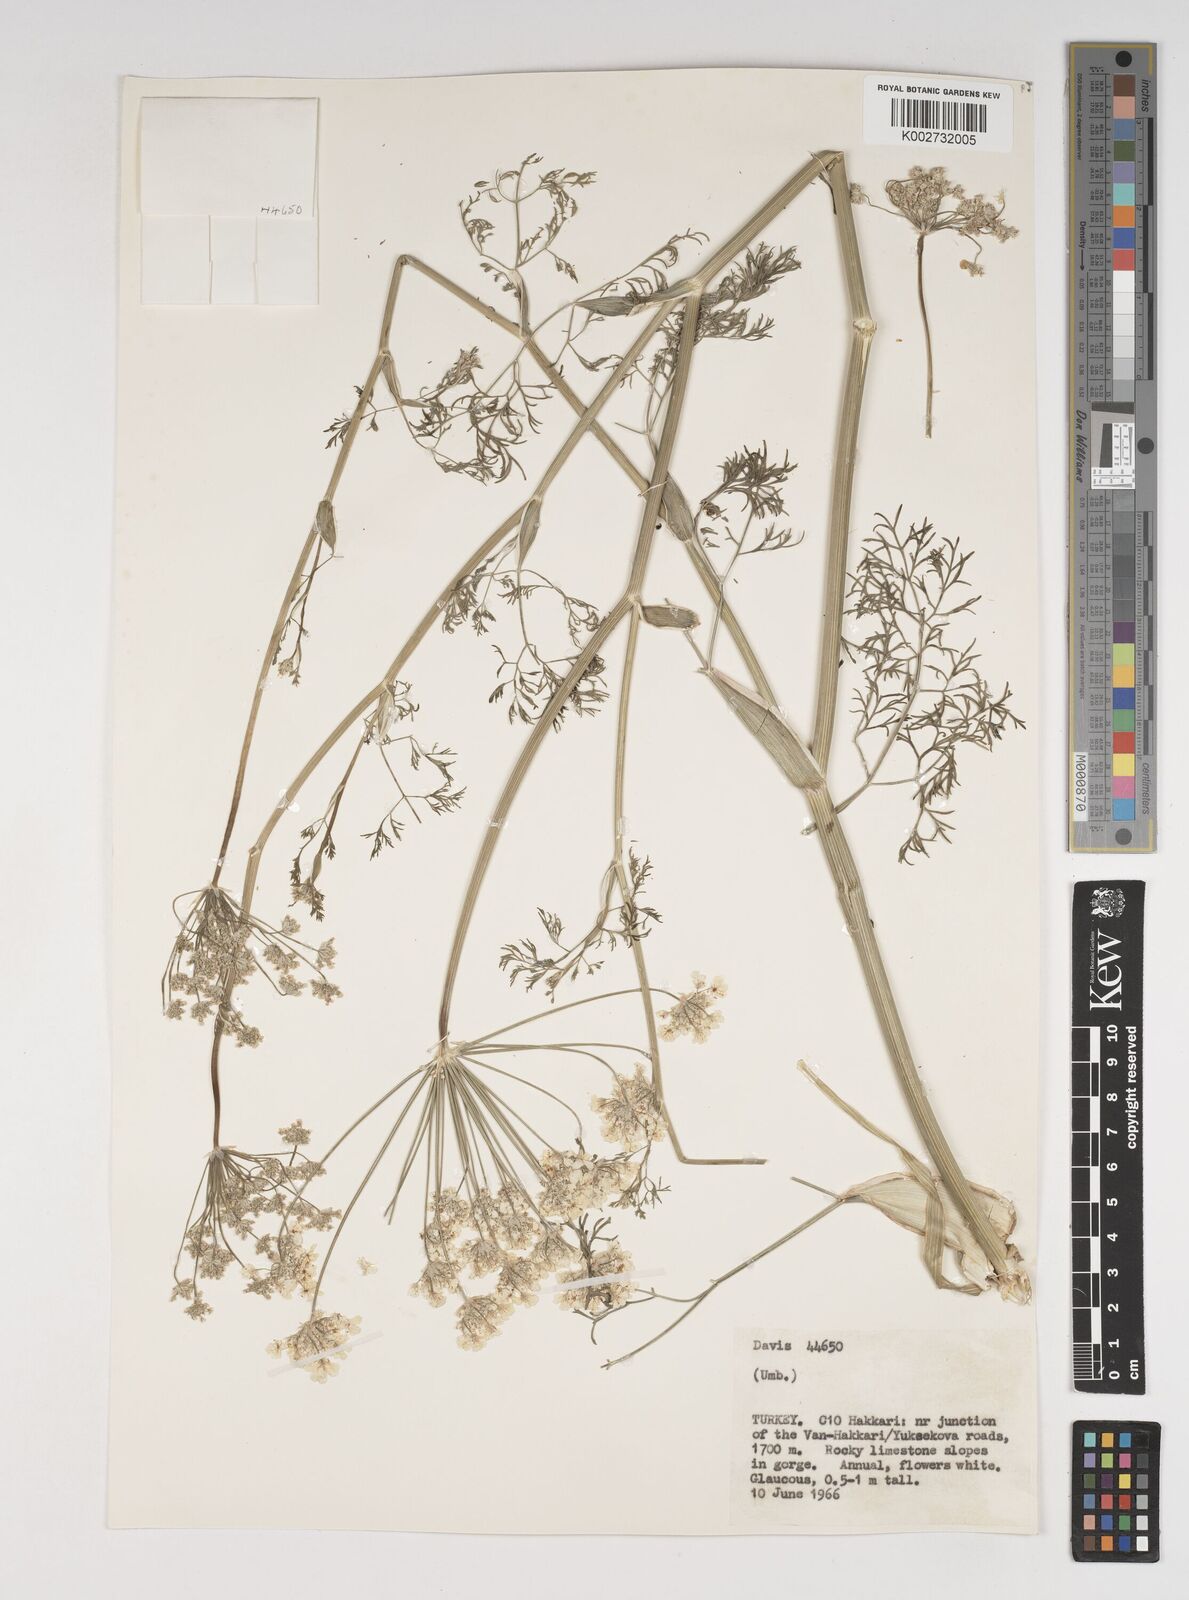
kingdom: Plantae
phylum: Tracheophyta
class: Magnoliopsida
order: Apiales
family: Apiaceae
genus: Astrodaucus
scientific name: Astrodaucus
